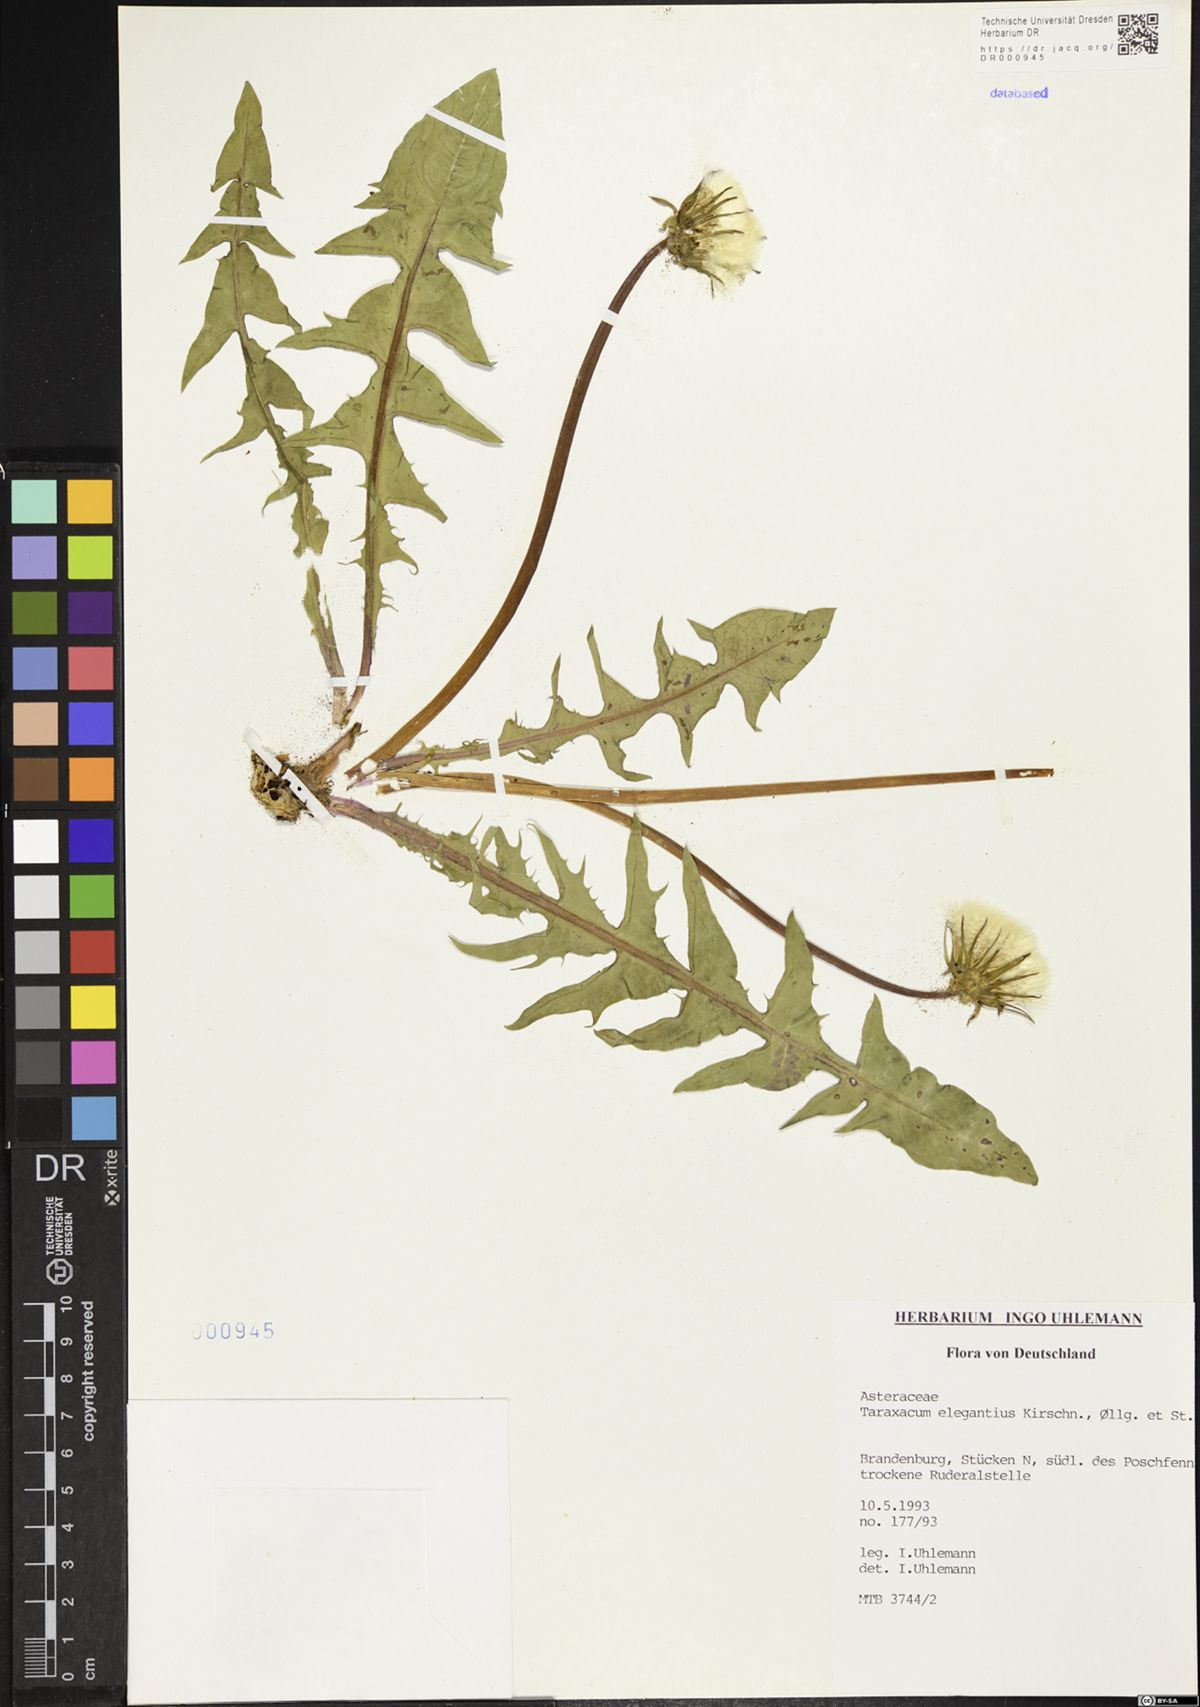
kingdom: Plantae
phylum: Tracheophyta
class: Magnoliopsida
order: Asterales
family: Asteraceae
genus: Taraxacum
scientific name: Taraxacum elegantius
